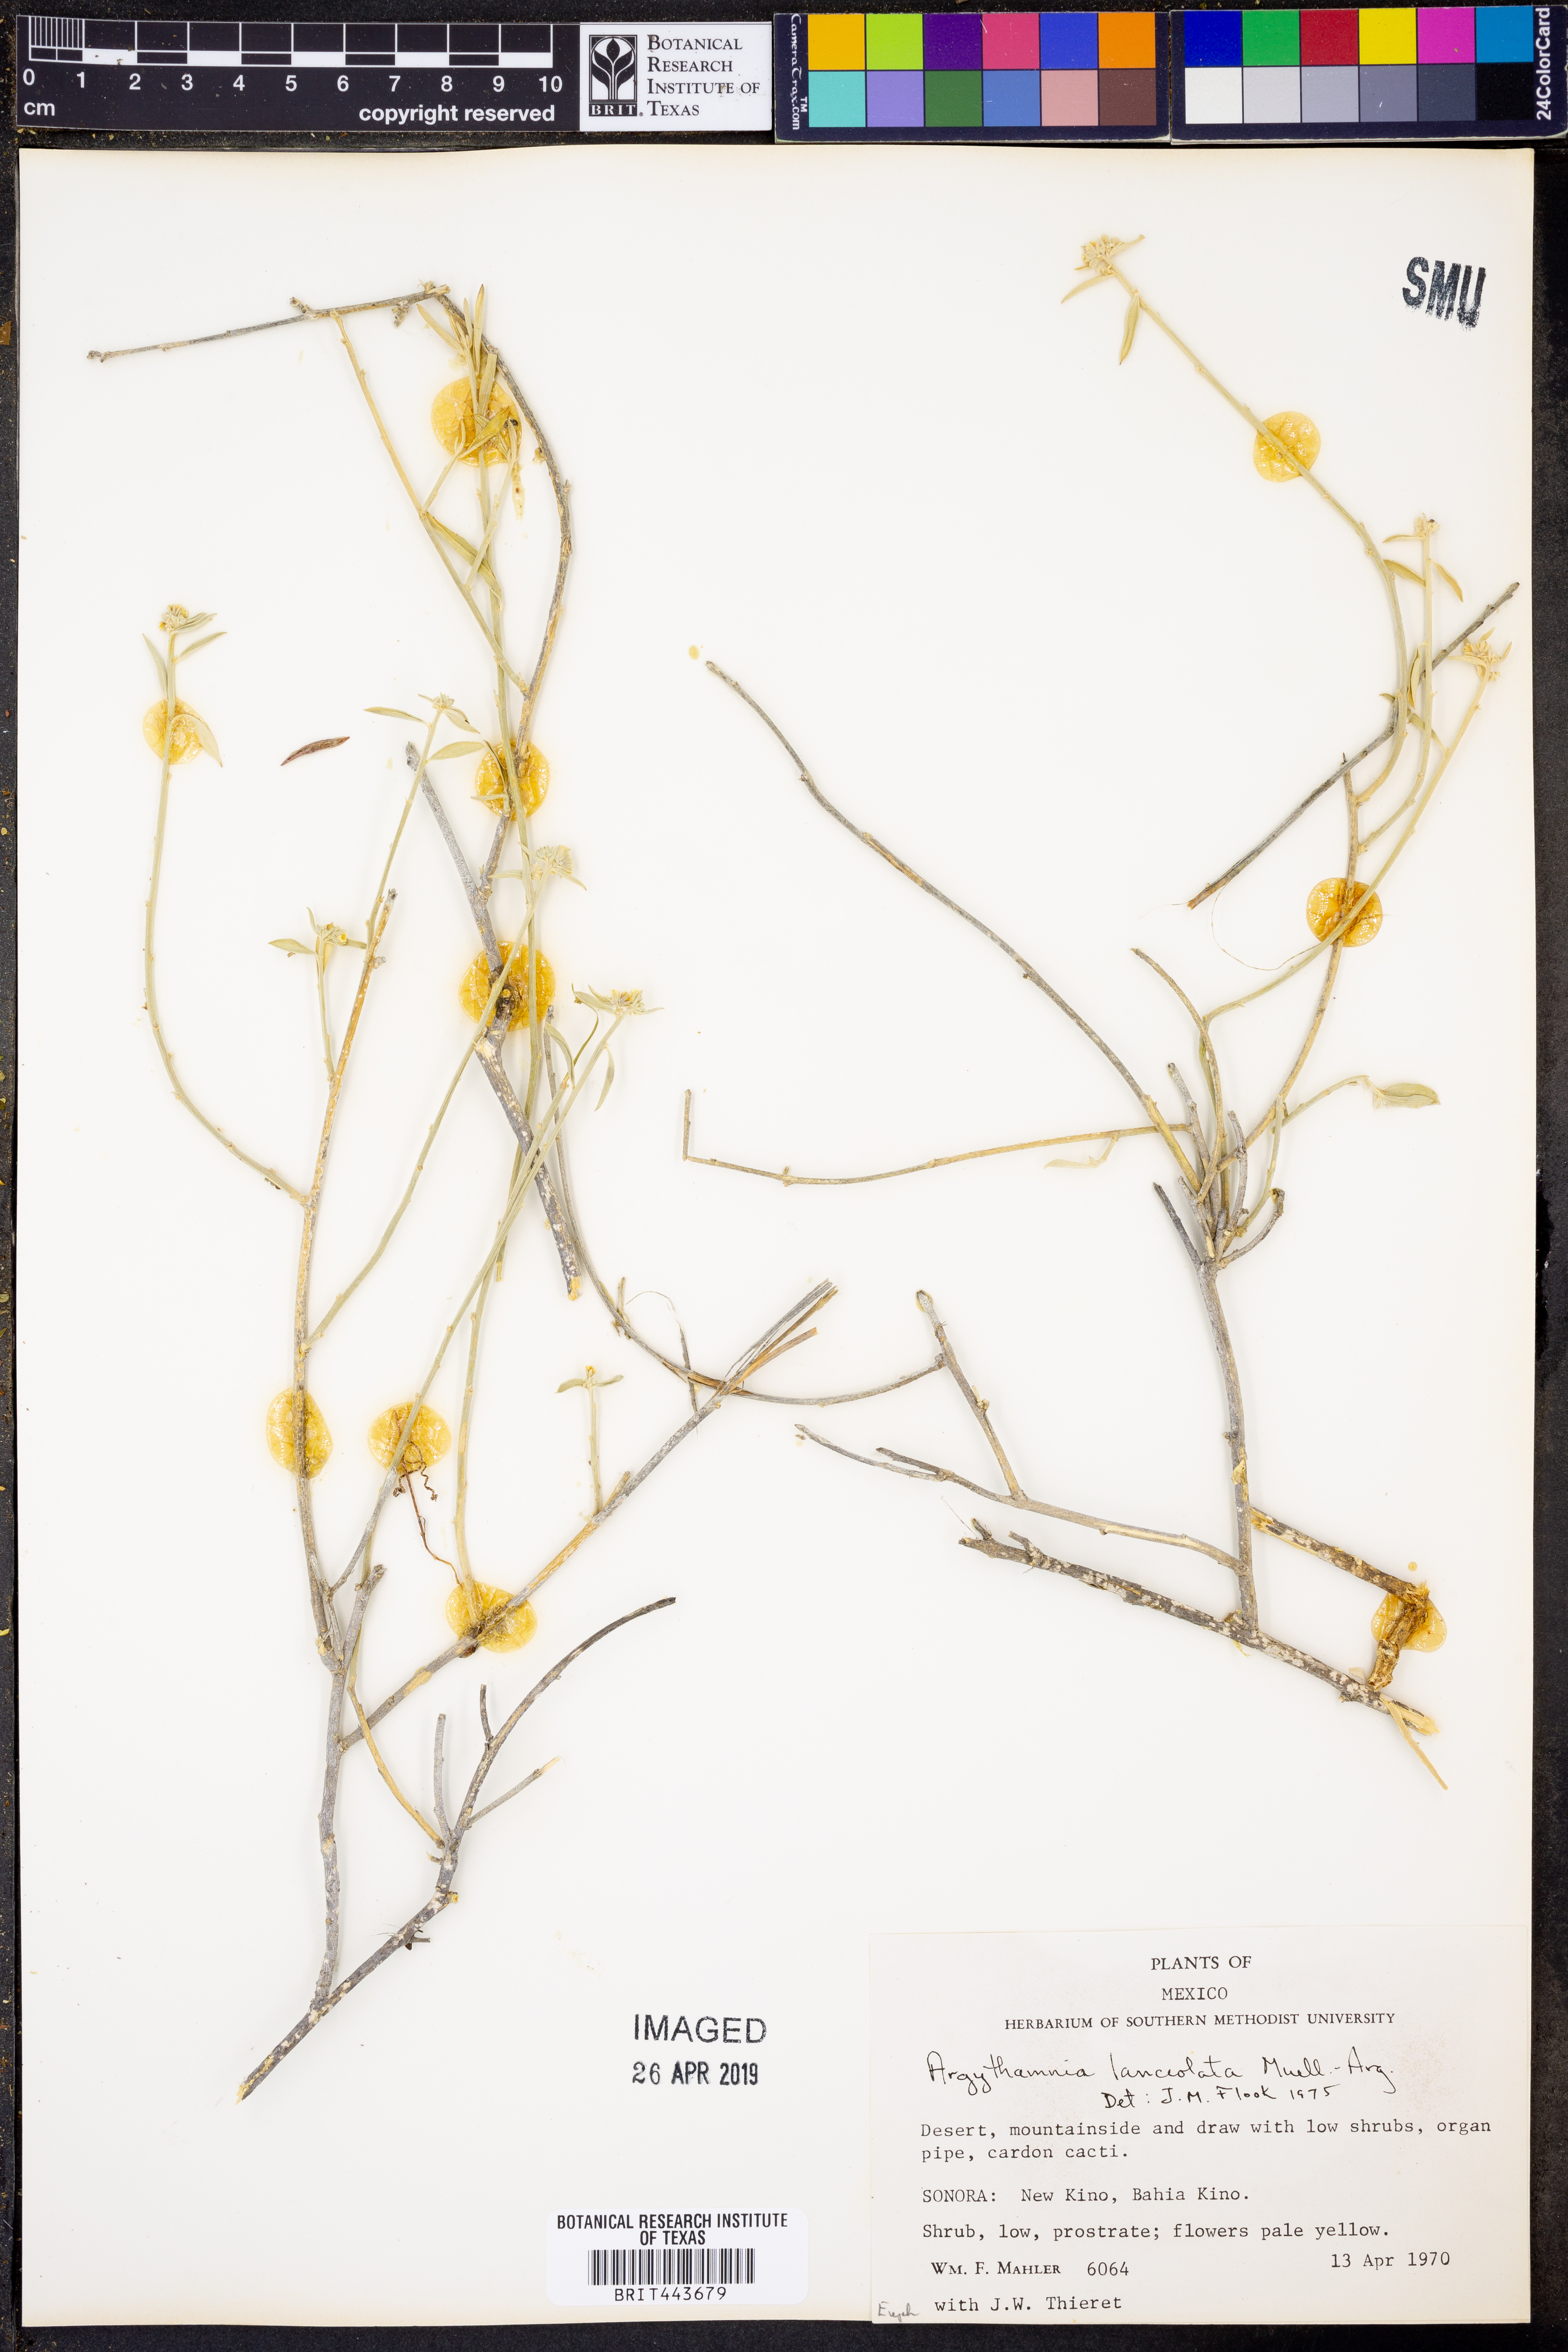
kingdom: Plantae
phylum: Tracheophyta
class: Magnoliopsida
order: Malpighiales
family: Euphorbiaceae
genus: Ditaxis
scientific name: Ditaxis lanceolata
